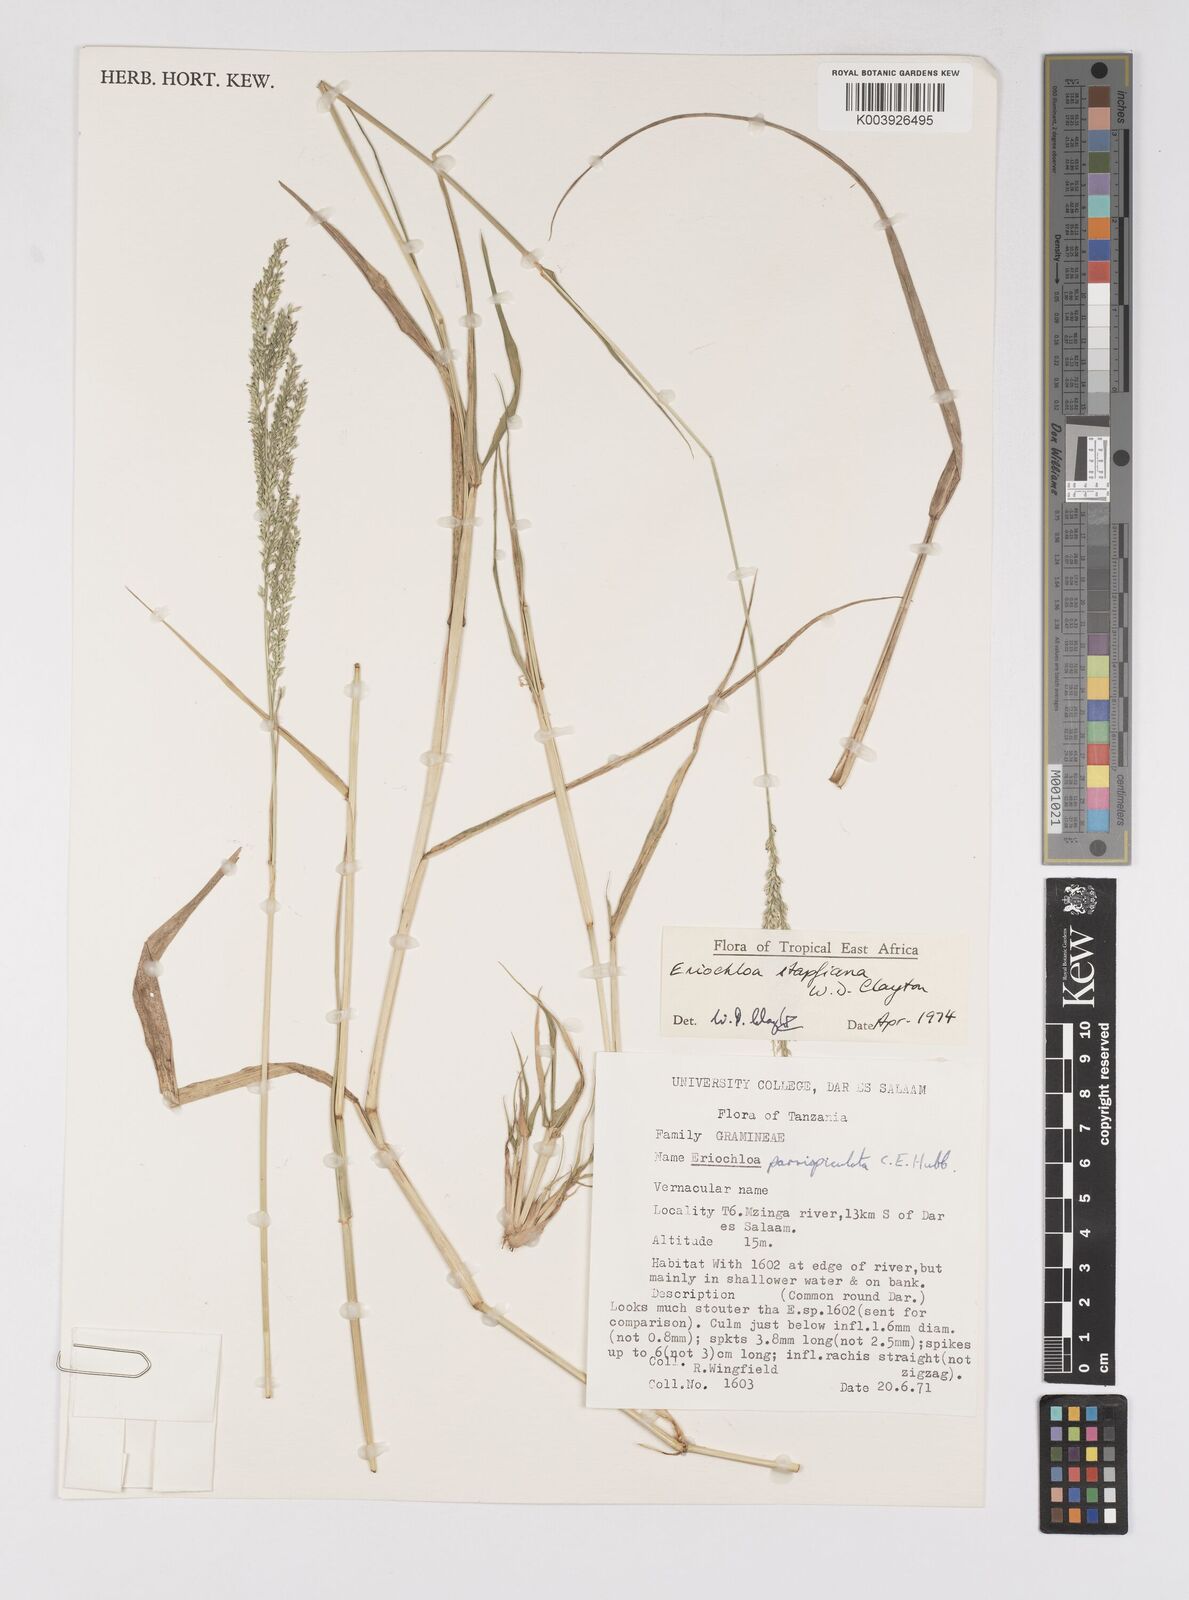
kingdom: Plantae
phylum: Tracheophyta
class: Liliopsida
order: Poales
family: Poaceae
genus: Eriochloa
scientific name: Eriochloa stapfiana
